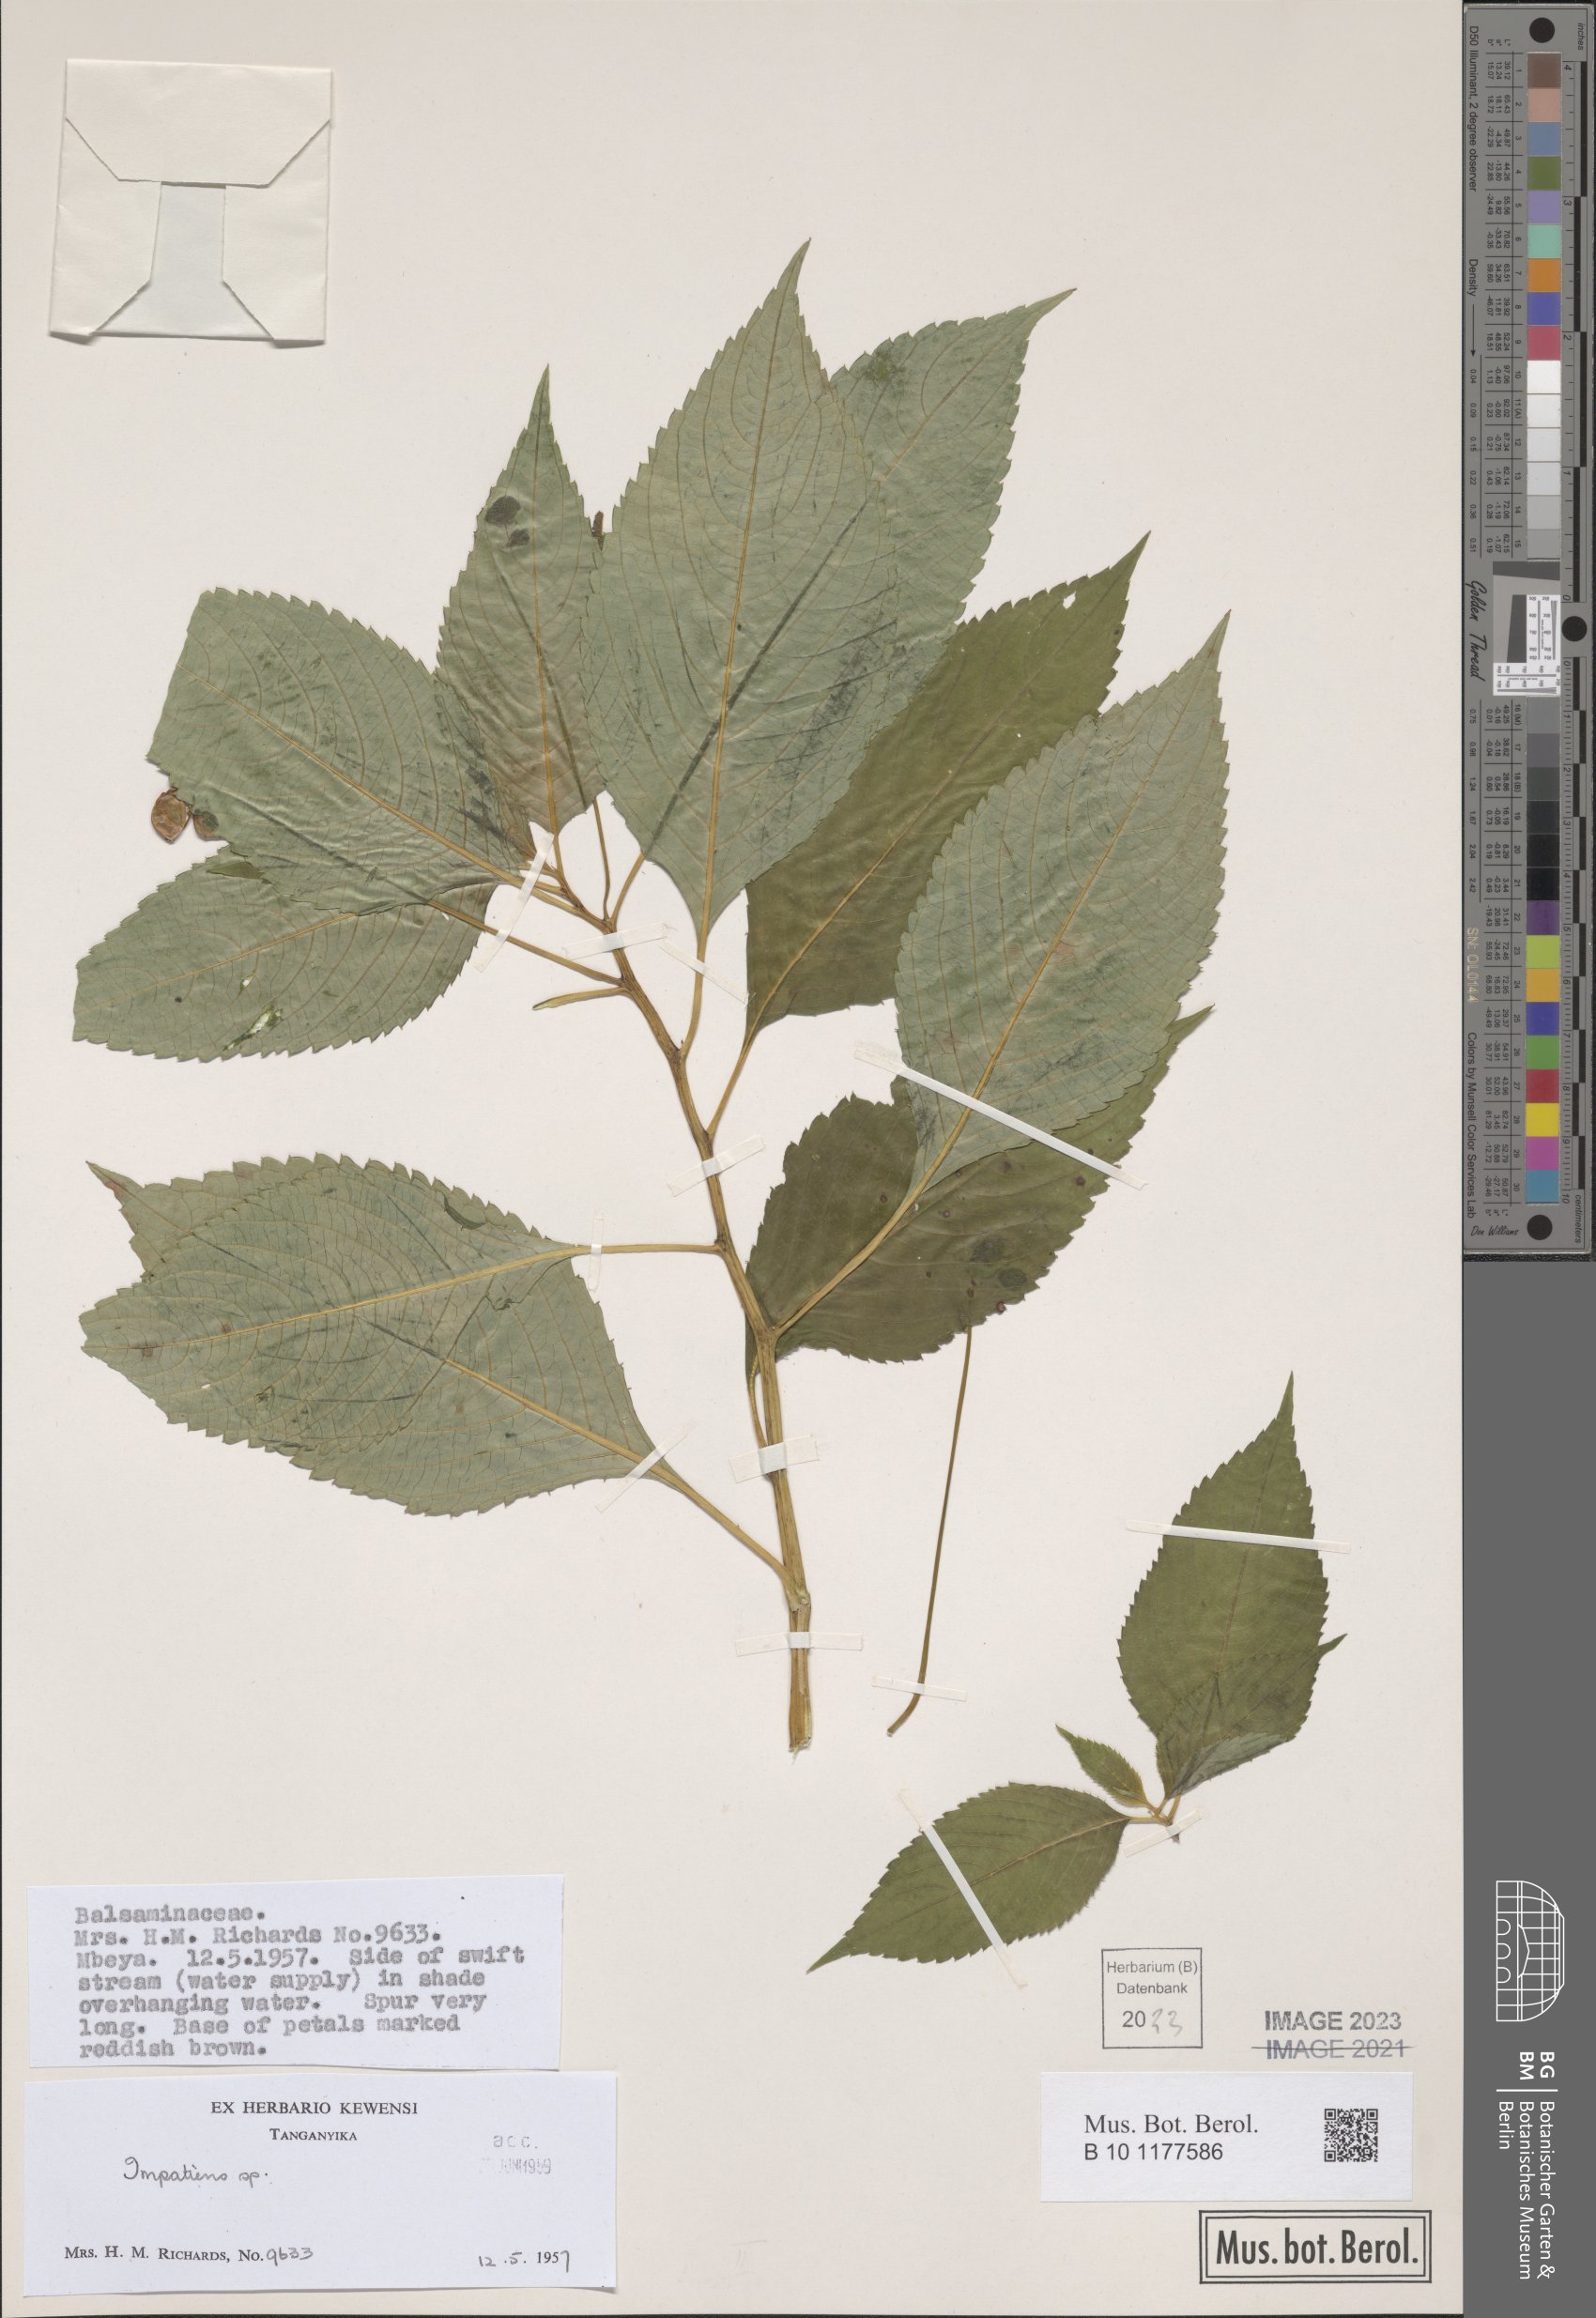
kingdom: Plantae
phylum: Tracheophyta
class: Magnoliopsida
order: Ericales
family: Balsaminaceae
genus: Impatiens
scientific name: Impatiens
